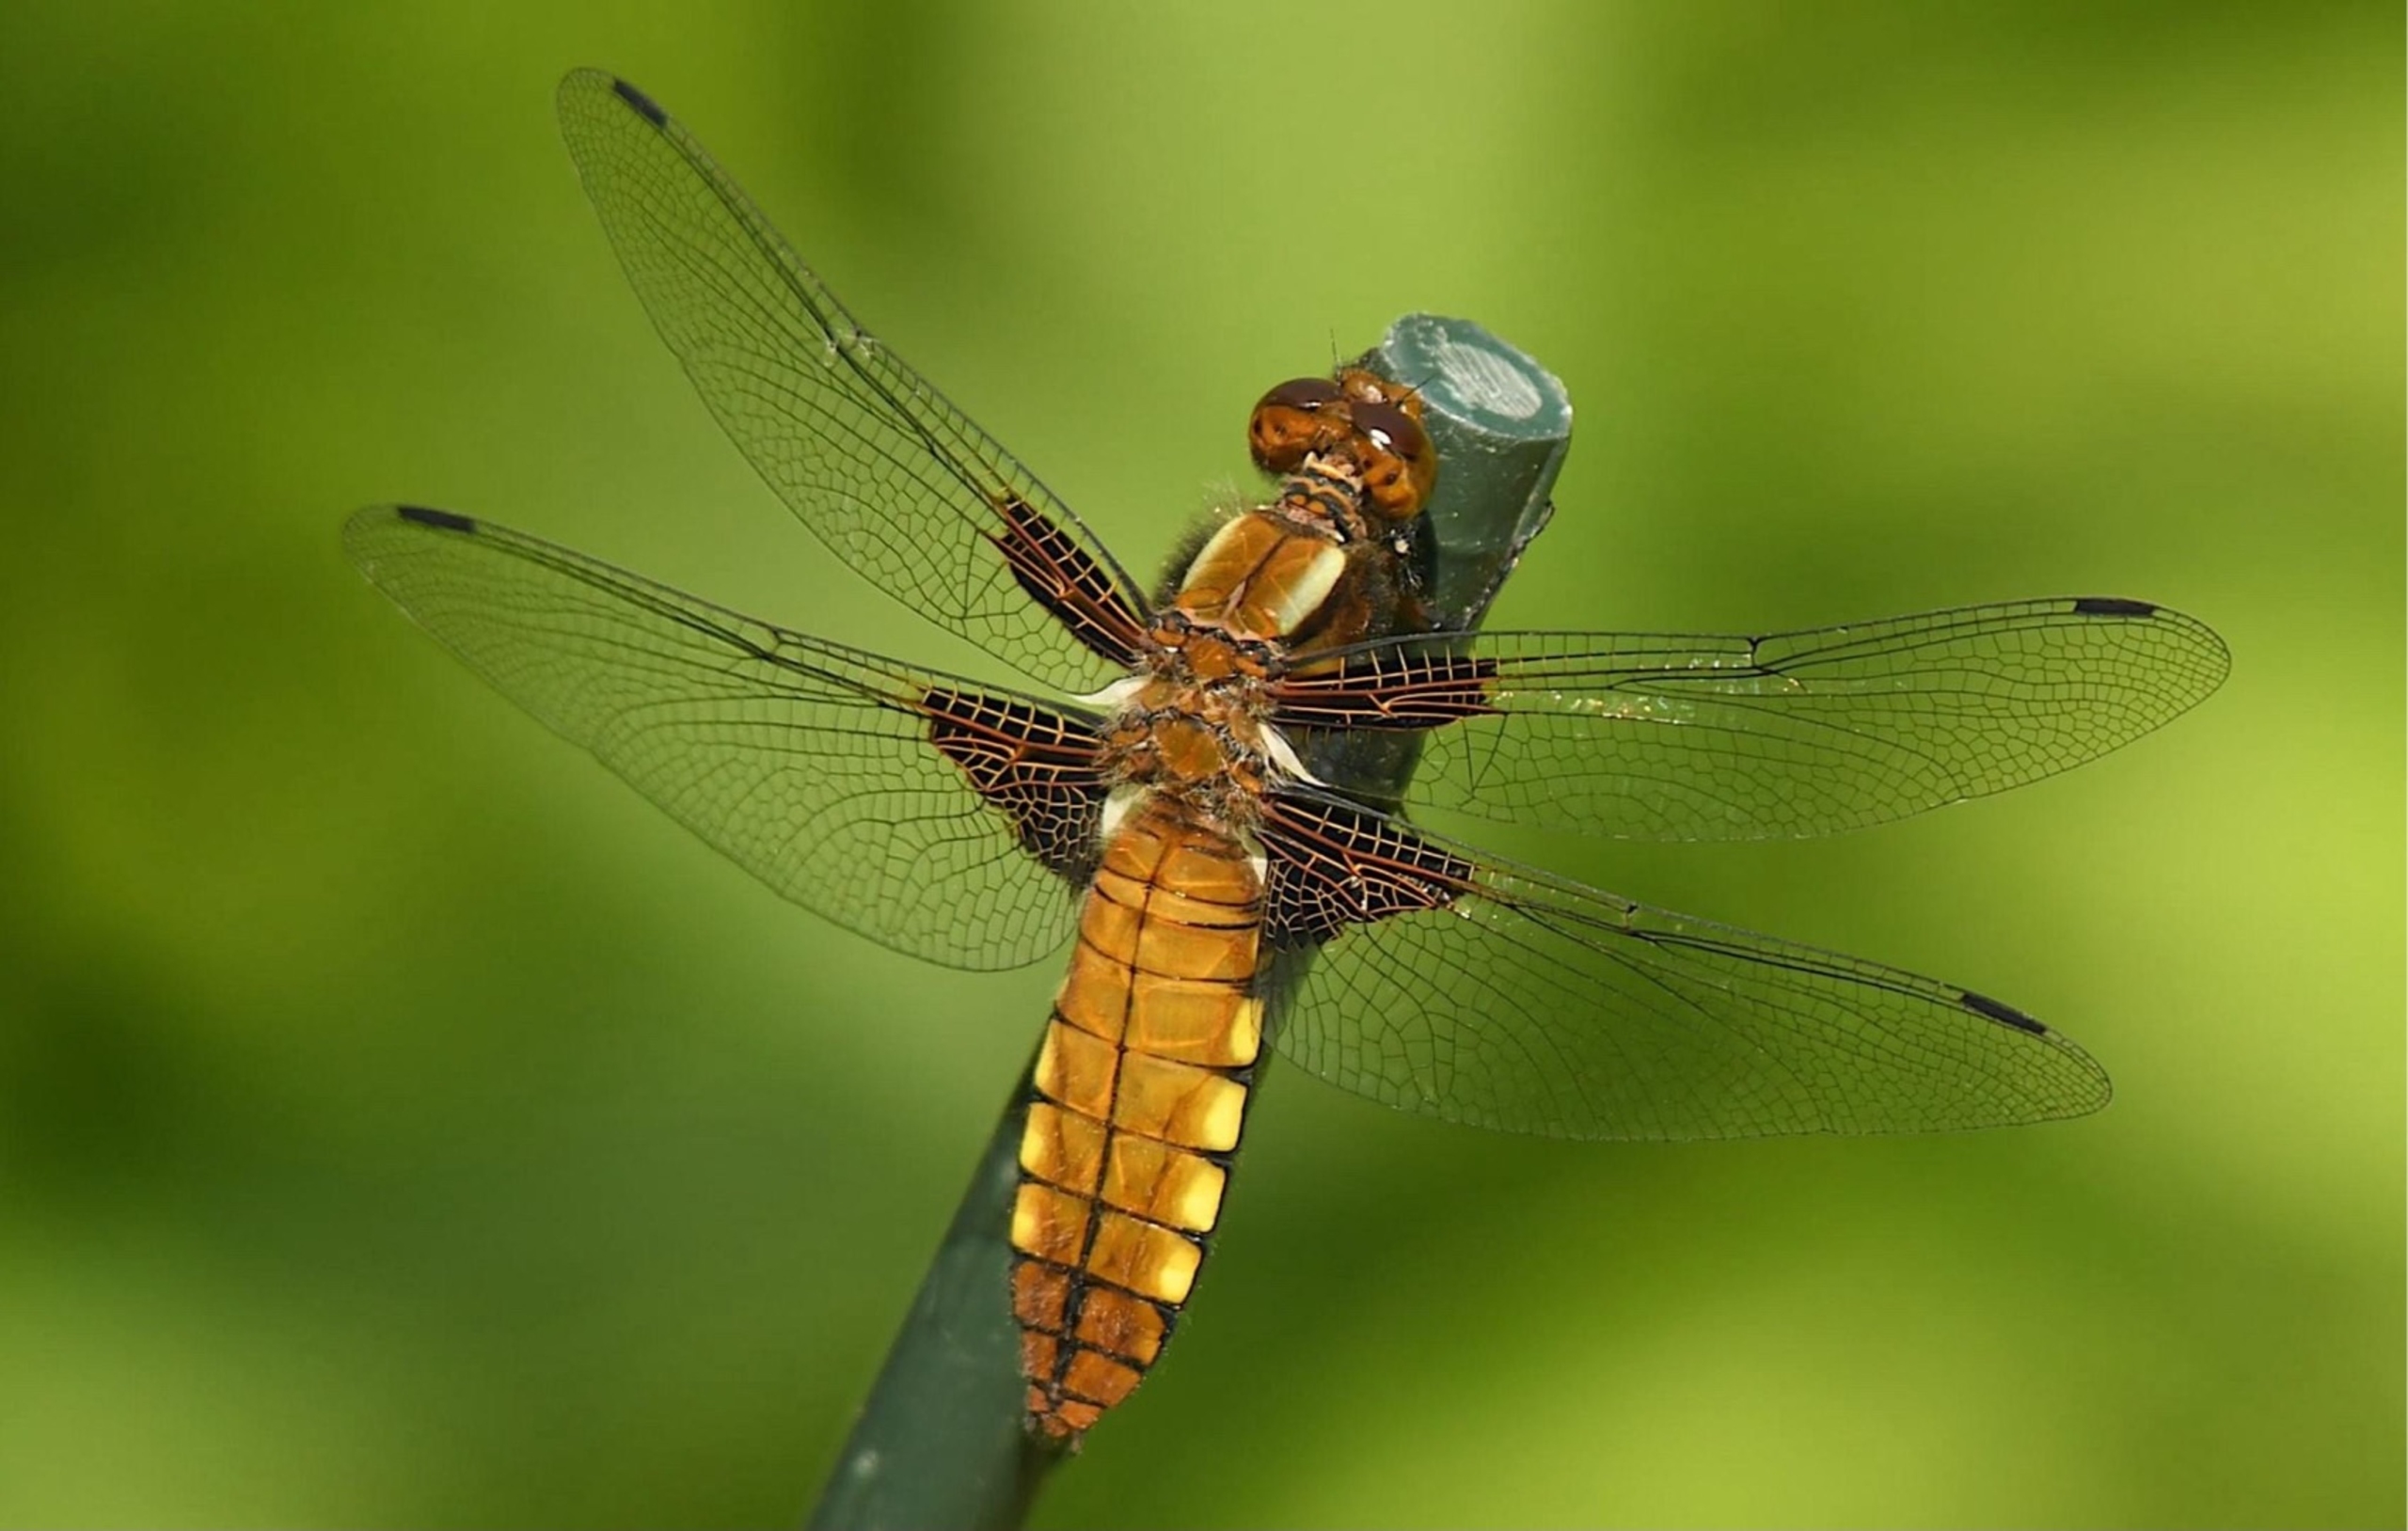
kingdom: Animalia
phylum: Arthropoda
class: Insecta
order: Odonata
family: Libellulidae
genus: Libellula
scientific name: Libellula depressa
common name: Blå libel
